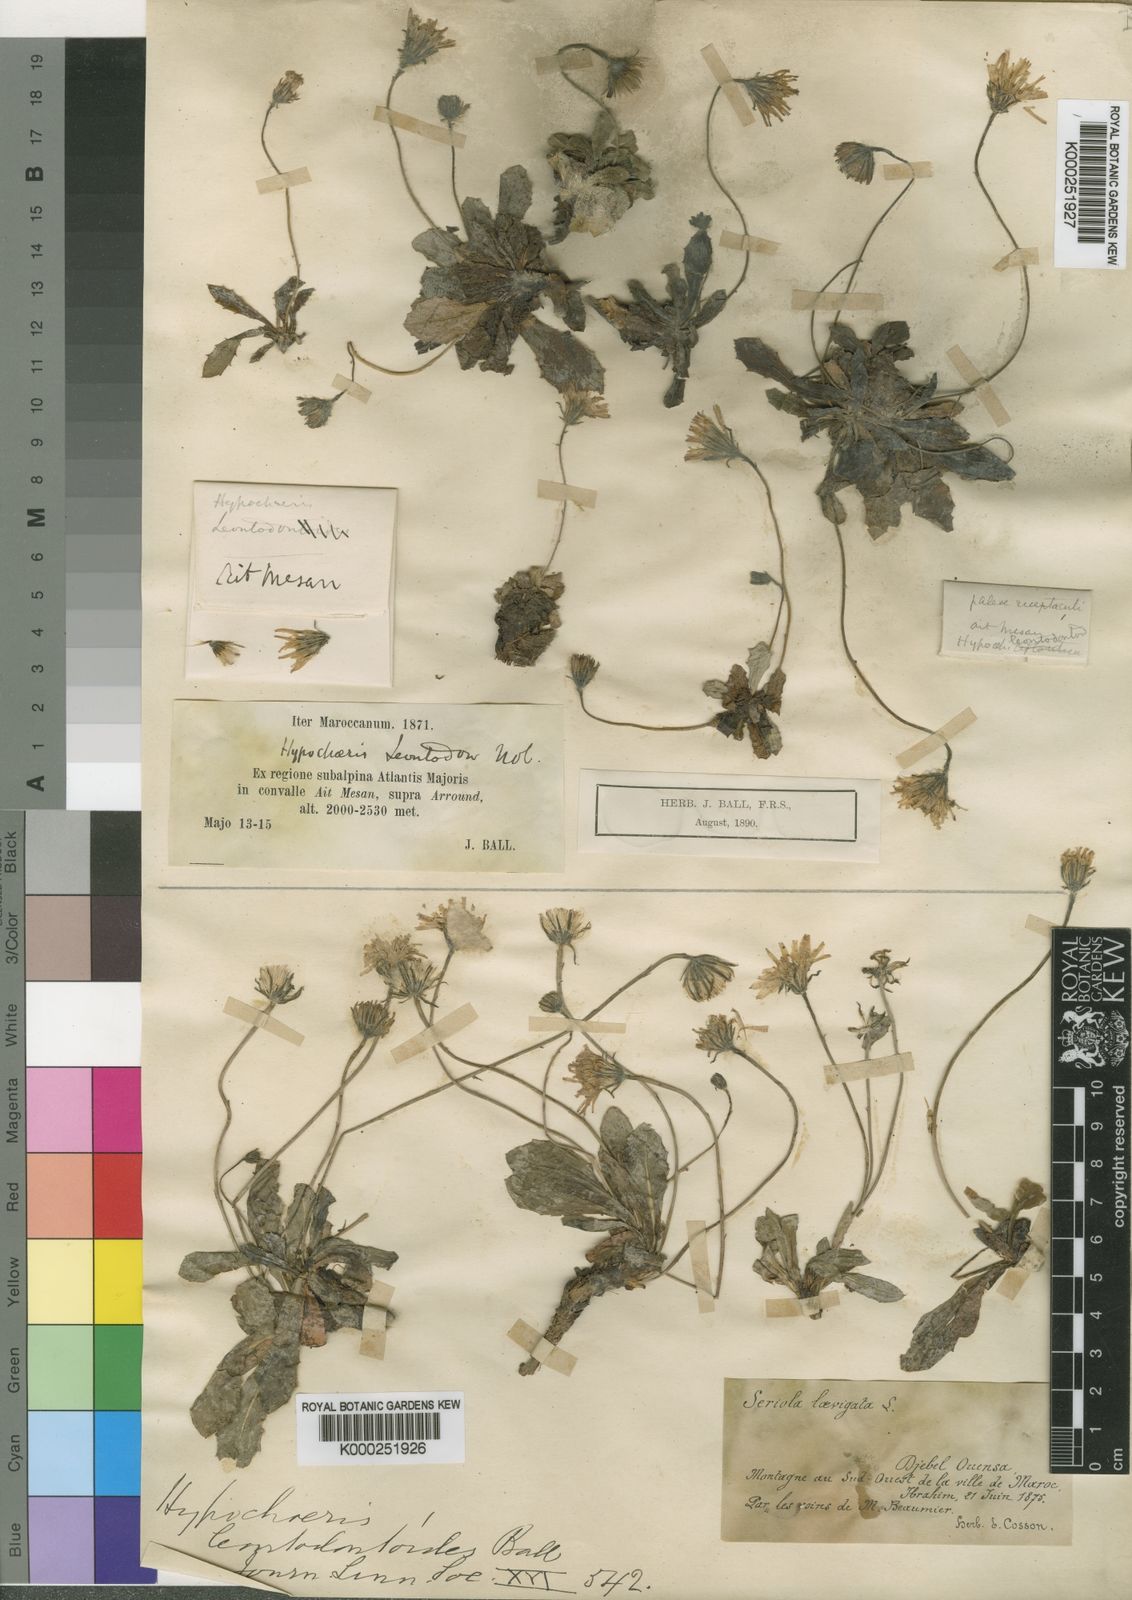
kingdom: Plantae
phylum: Tracheophyta
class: Magnoliopsida
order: Asterales
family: Asteraceae
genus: Achyrophorus
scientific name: Achyrophorus leontodontoides
